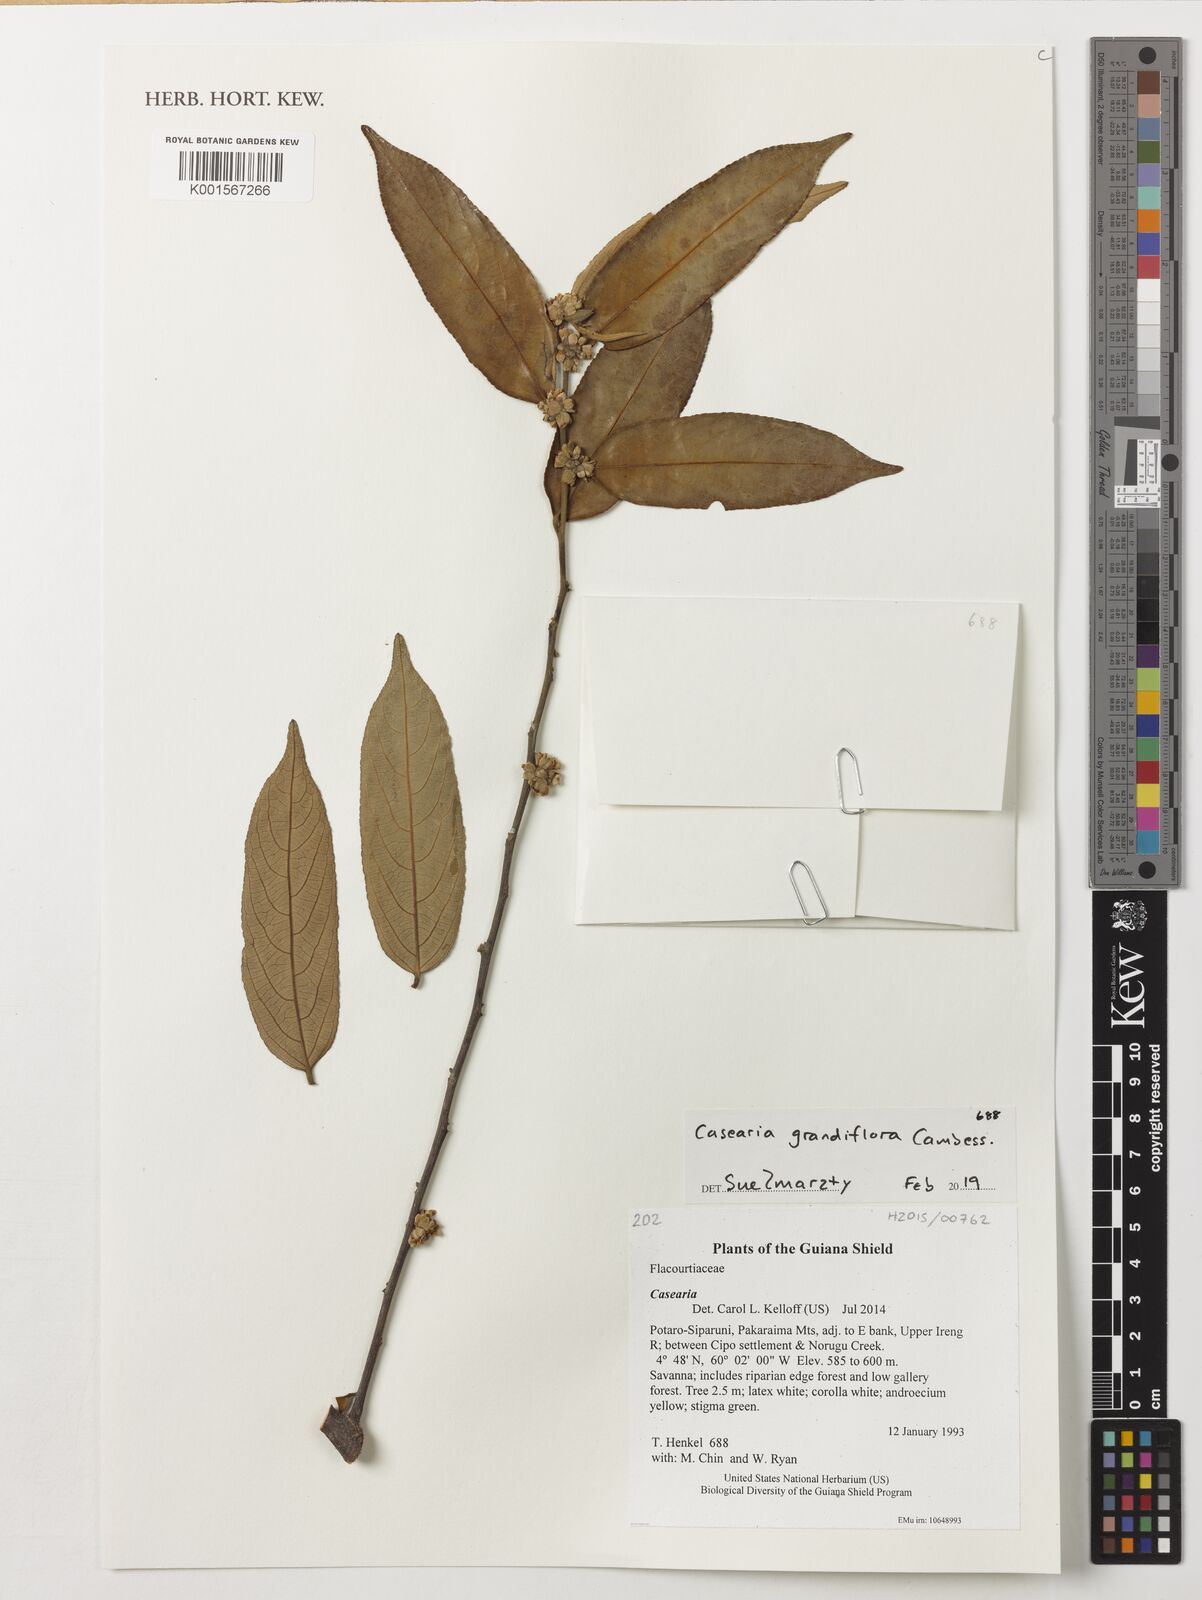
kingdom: Plantae
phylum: Tracheophyta
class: Magnoliopsida
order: Malpighiales
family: Salicaceae
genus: Casearia
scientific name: Casearia grandiflora
